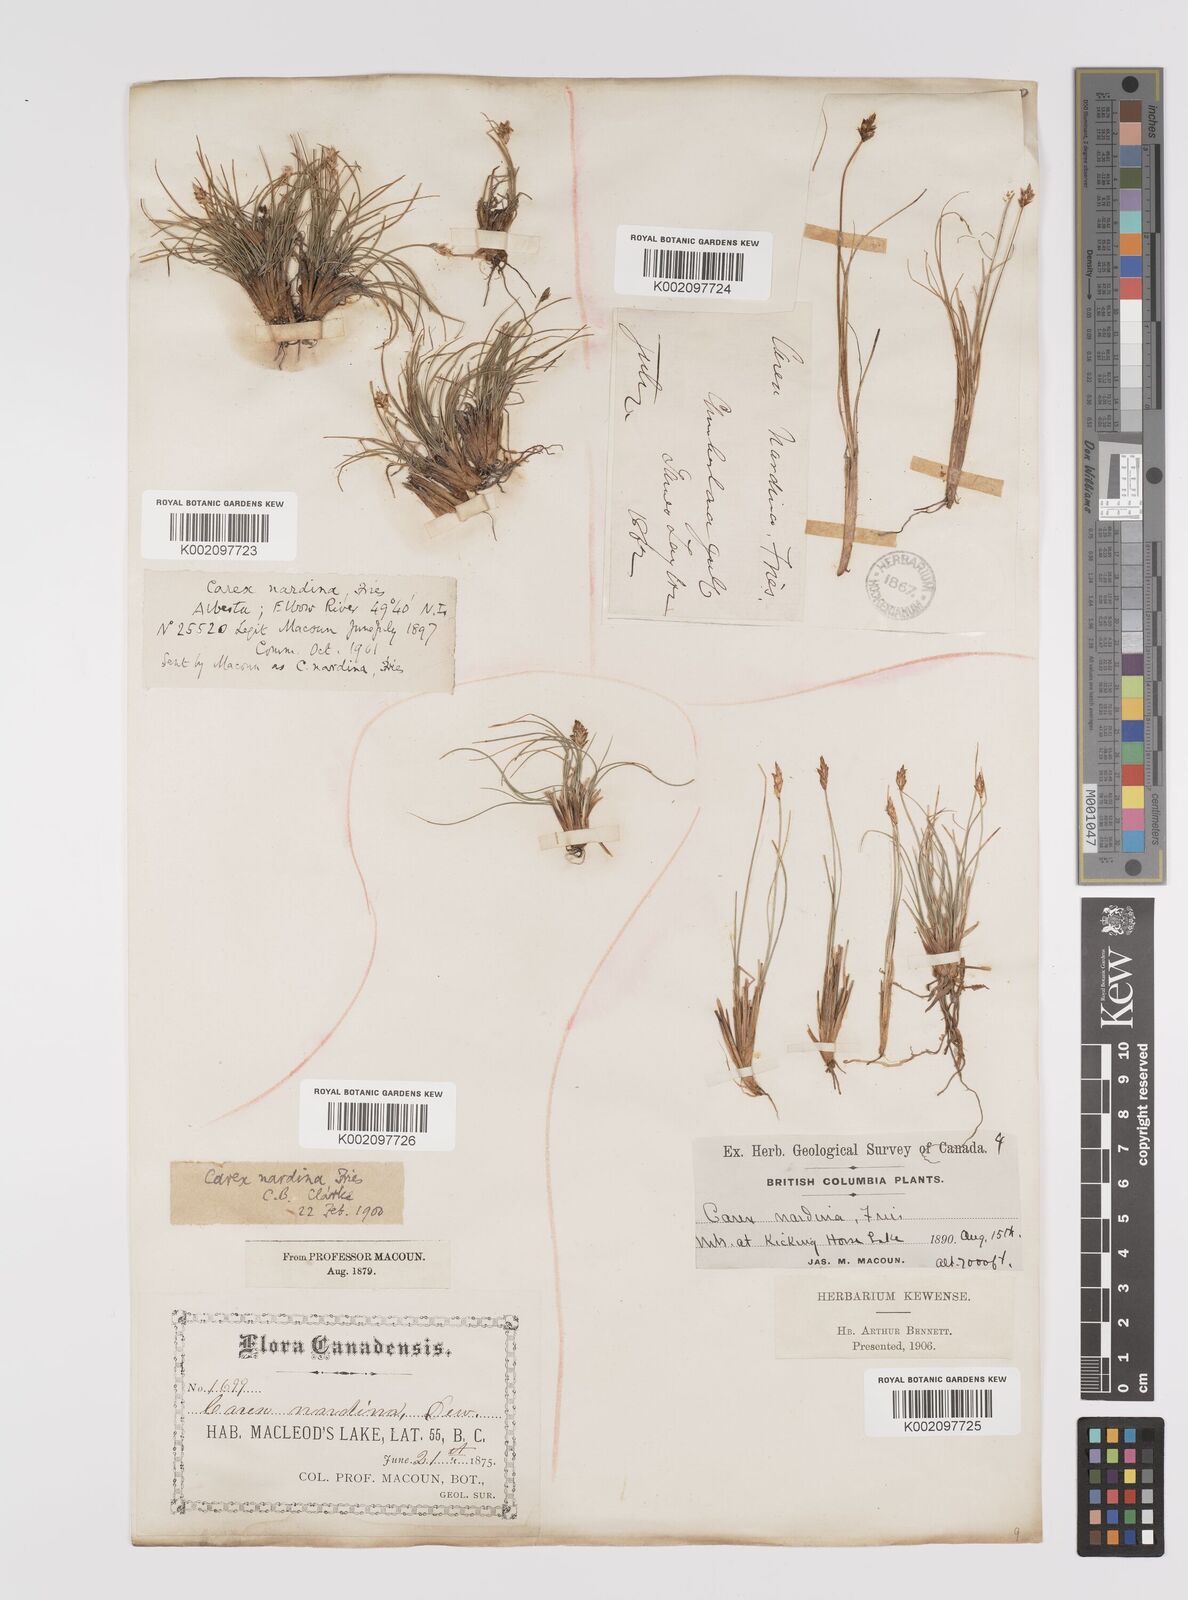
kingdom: Plantae
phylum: Tracheophyta
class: Liliopsida
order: Poales
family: Cyperaceae
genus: Carex
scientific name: Carex nardina
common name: Nard sedge
